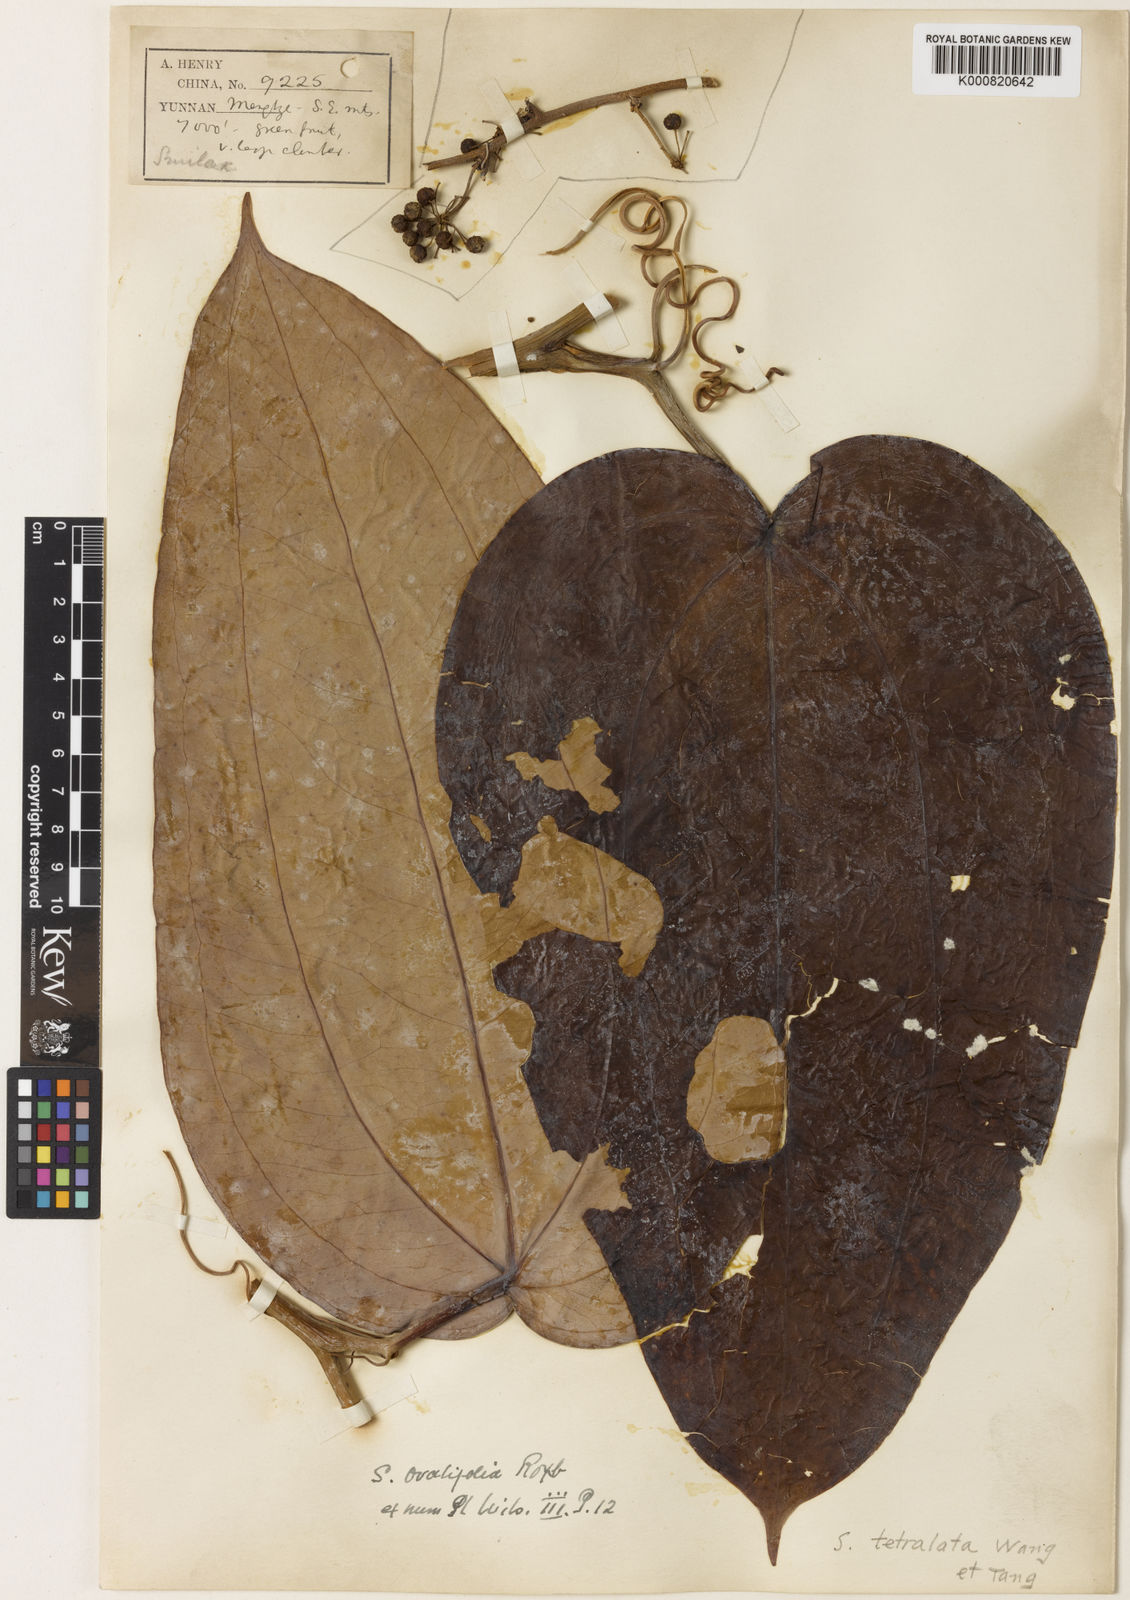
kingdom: Plantae
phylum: Tracheophyta
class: Liliopsida
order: Liliales
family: Smilacaceae
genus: Smilax
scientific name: Smilax
